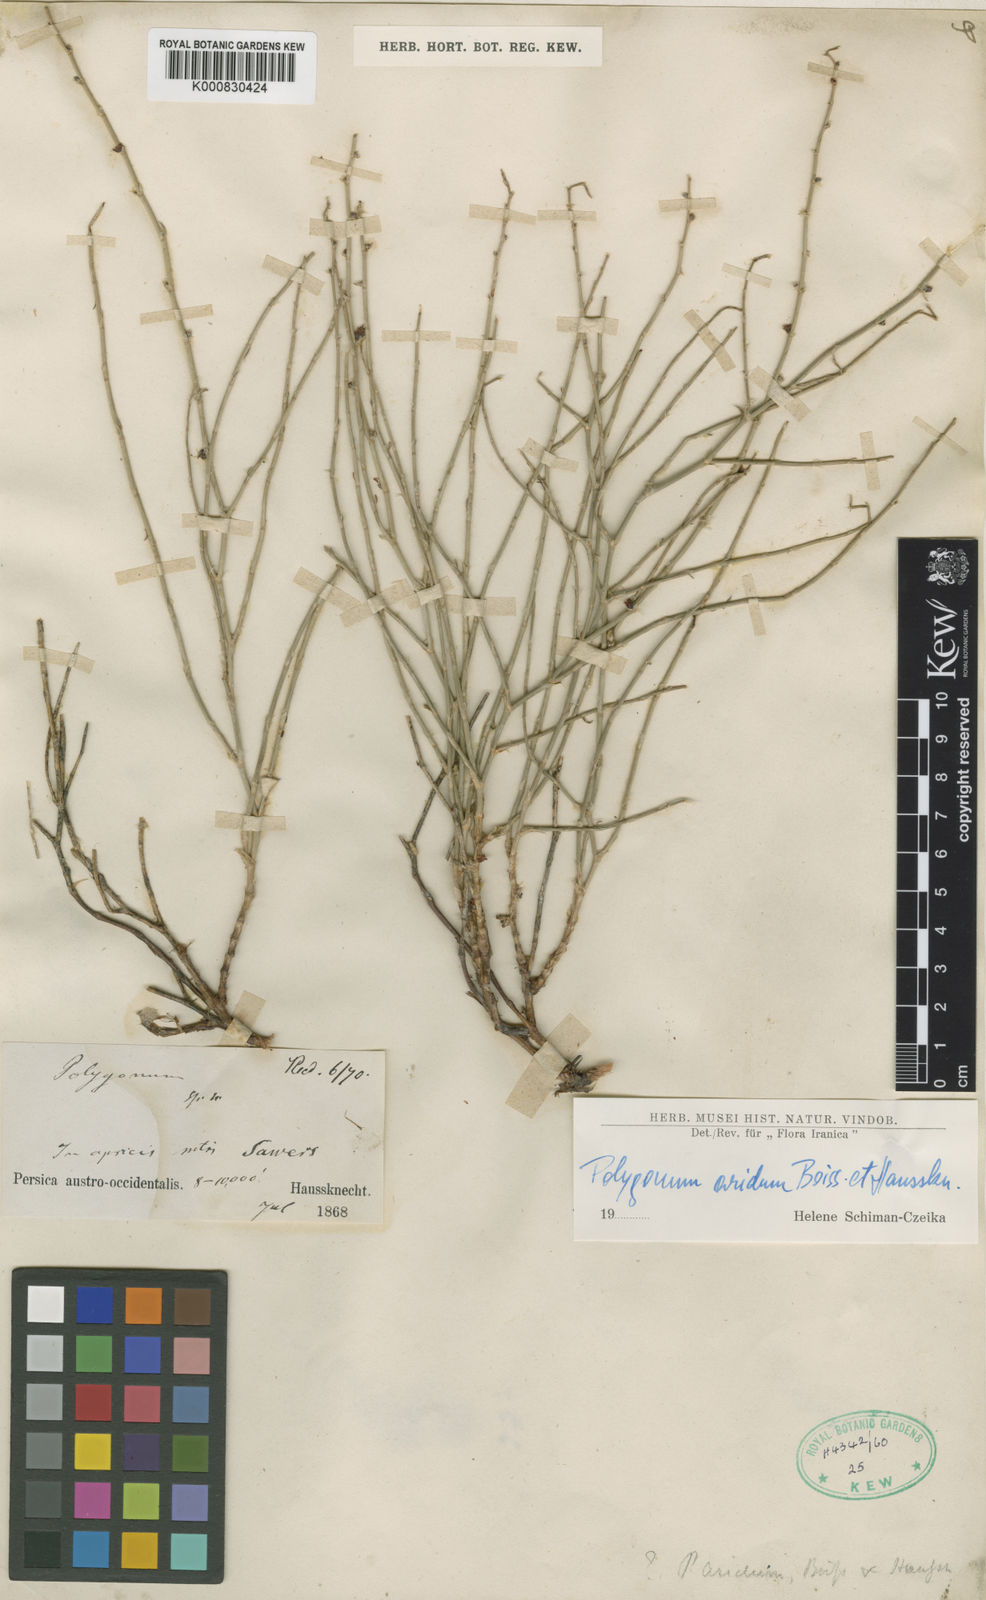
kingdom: Plantae
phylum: Tracheophyta
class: Magnoliopsida
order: Caryophyllales
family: Polygonaceae
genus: Atraphaxis
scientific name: Atraphaxis arida
